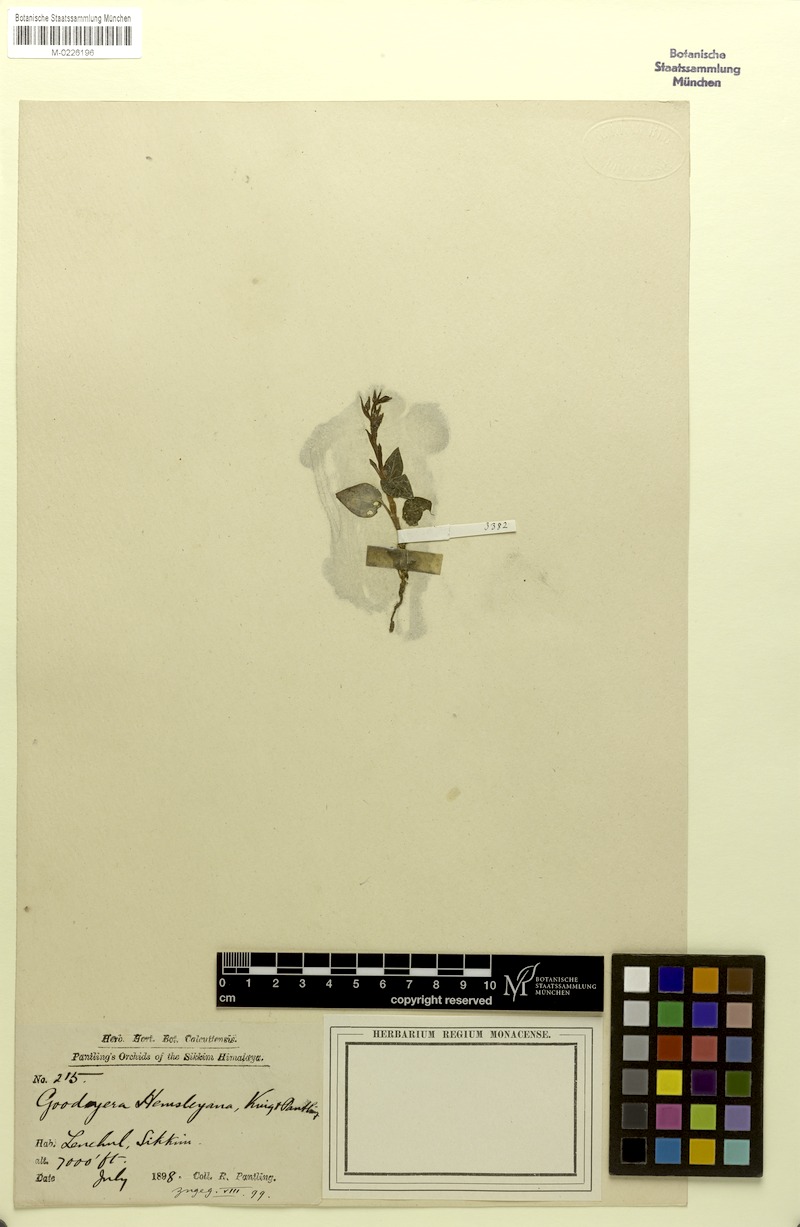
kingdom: Plantae
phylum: Tracheophyta
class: Liliopsida
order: Asparagales
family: Orchidaceae
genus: Goodyera
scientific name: Goodyera hemsleyana
